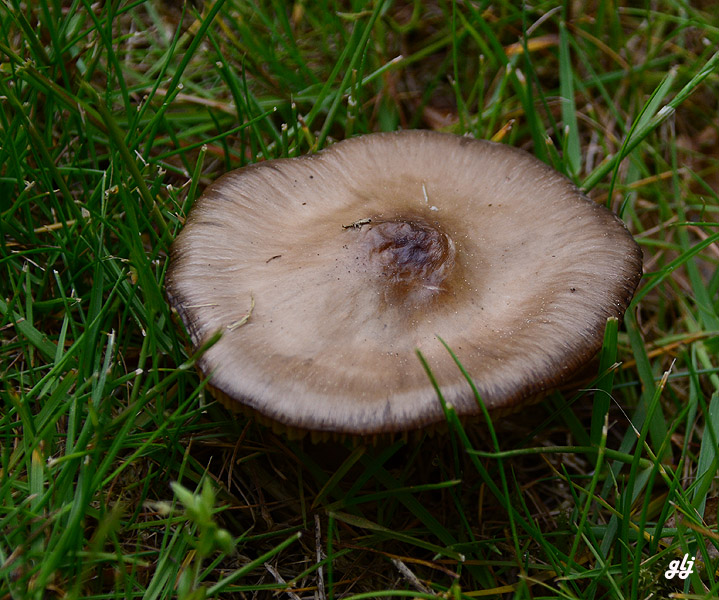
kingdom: Fungi
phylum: Basidiomycota
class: Agaricomycetes
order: Agaricales
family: Entolomataceae
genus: Entoloma
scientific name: Entoloma clypeatum
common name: flammet rødblad
